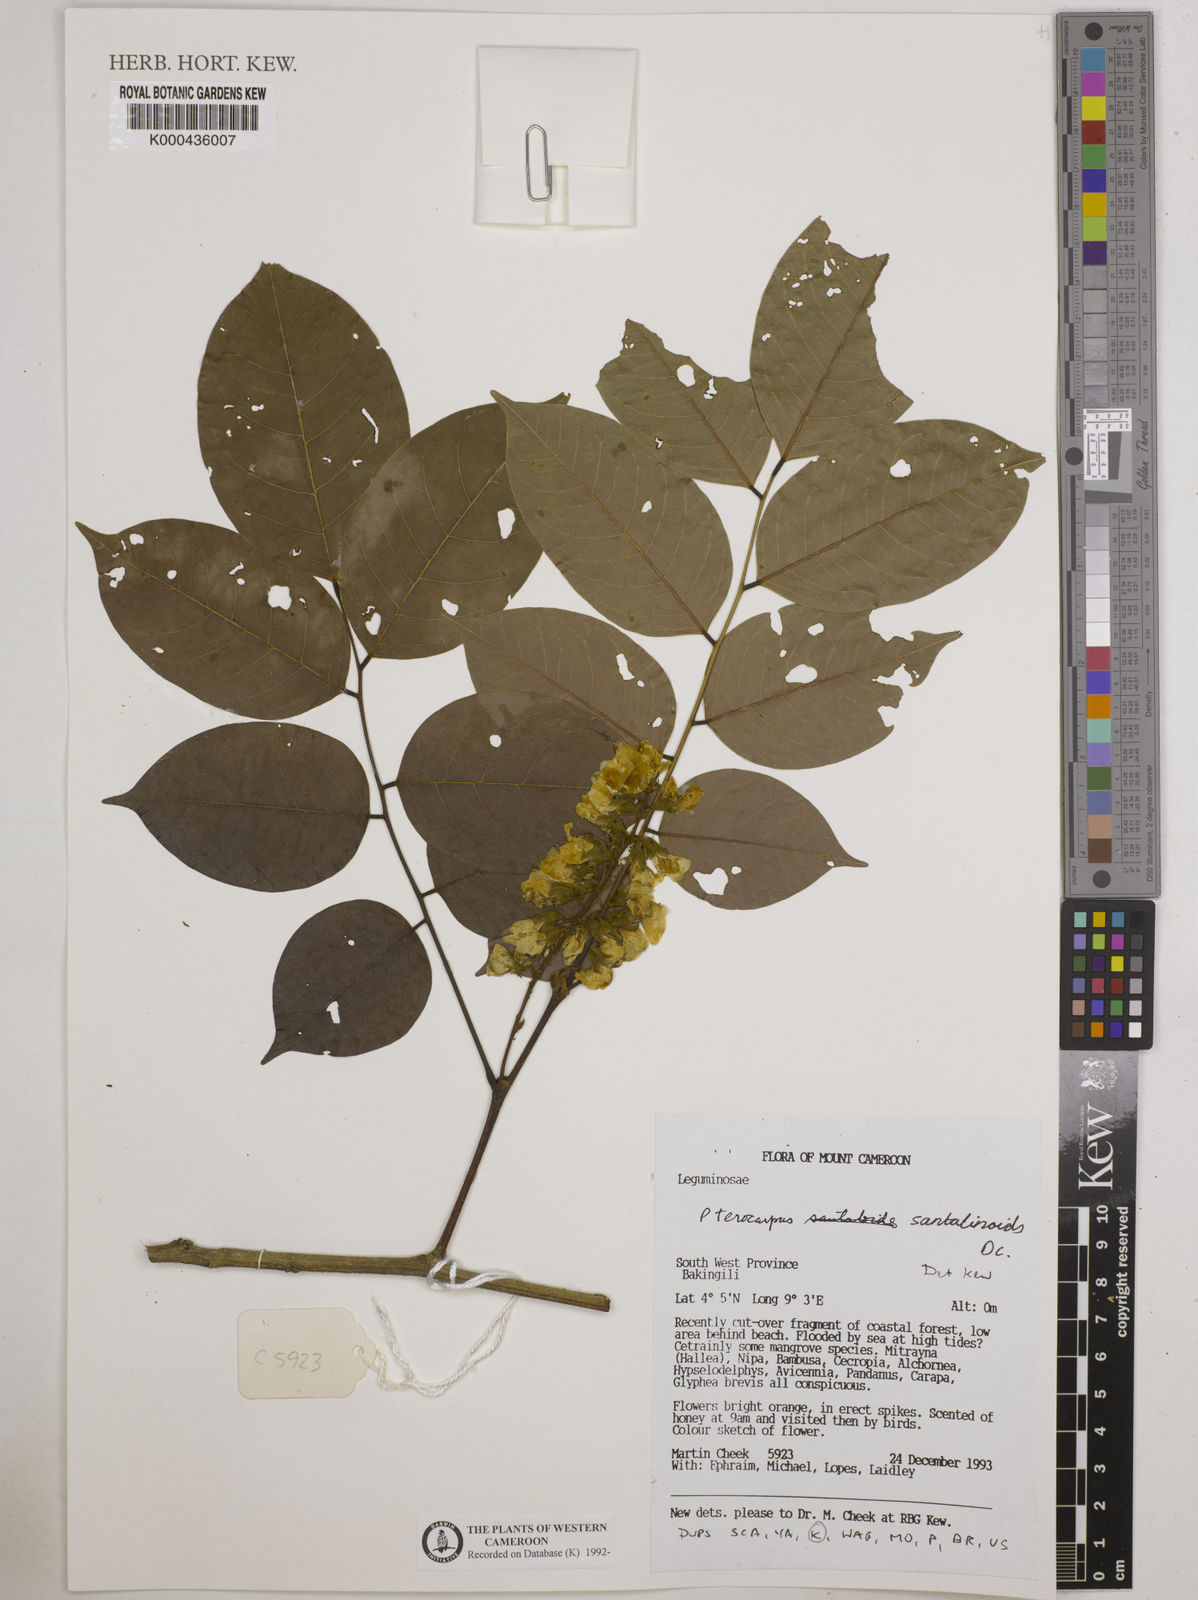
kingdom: Plantae
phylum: Tracheophyta
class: Magnoliopsida
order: Fabales
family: Fabaceae
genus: Pterocarpus
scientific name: Pterocarpus
